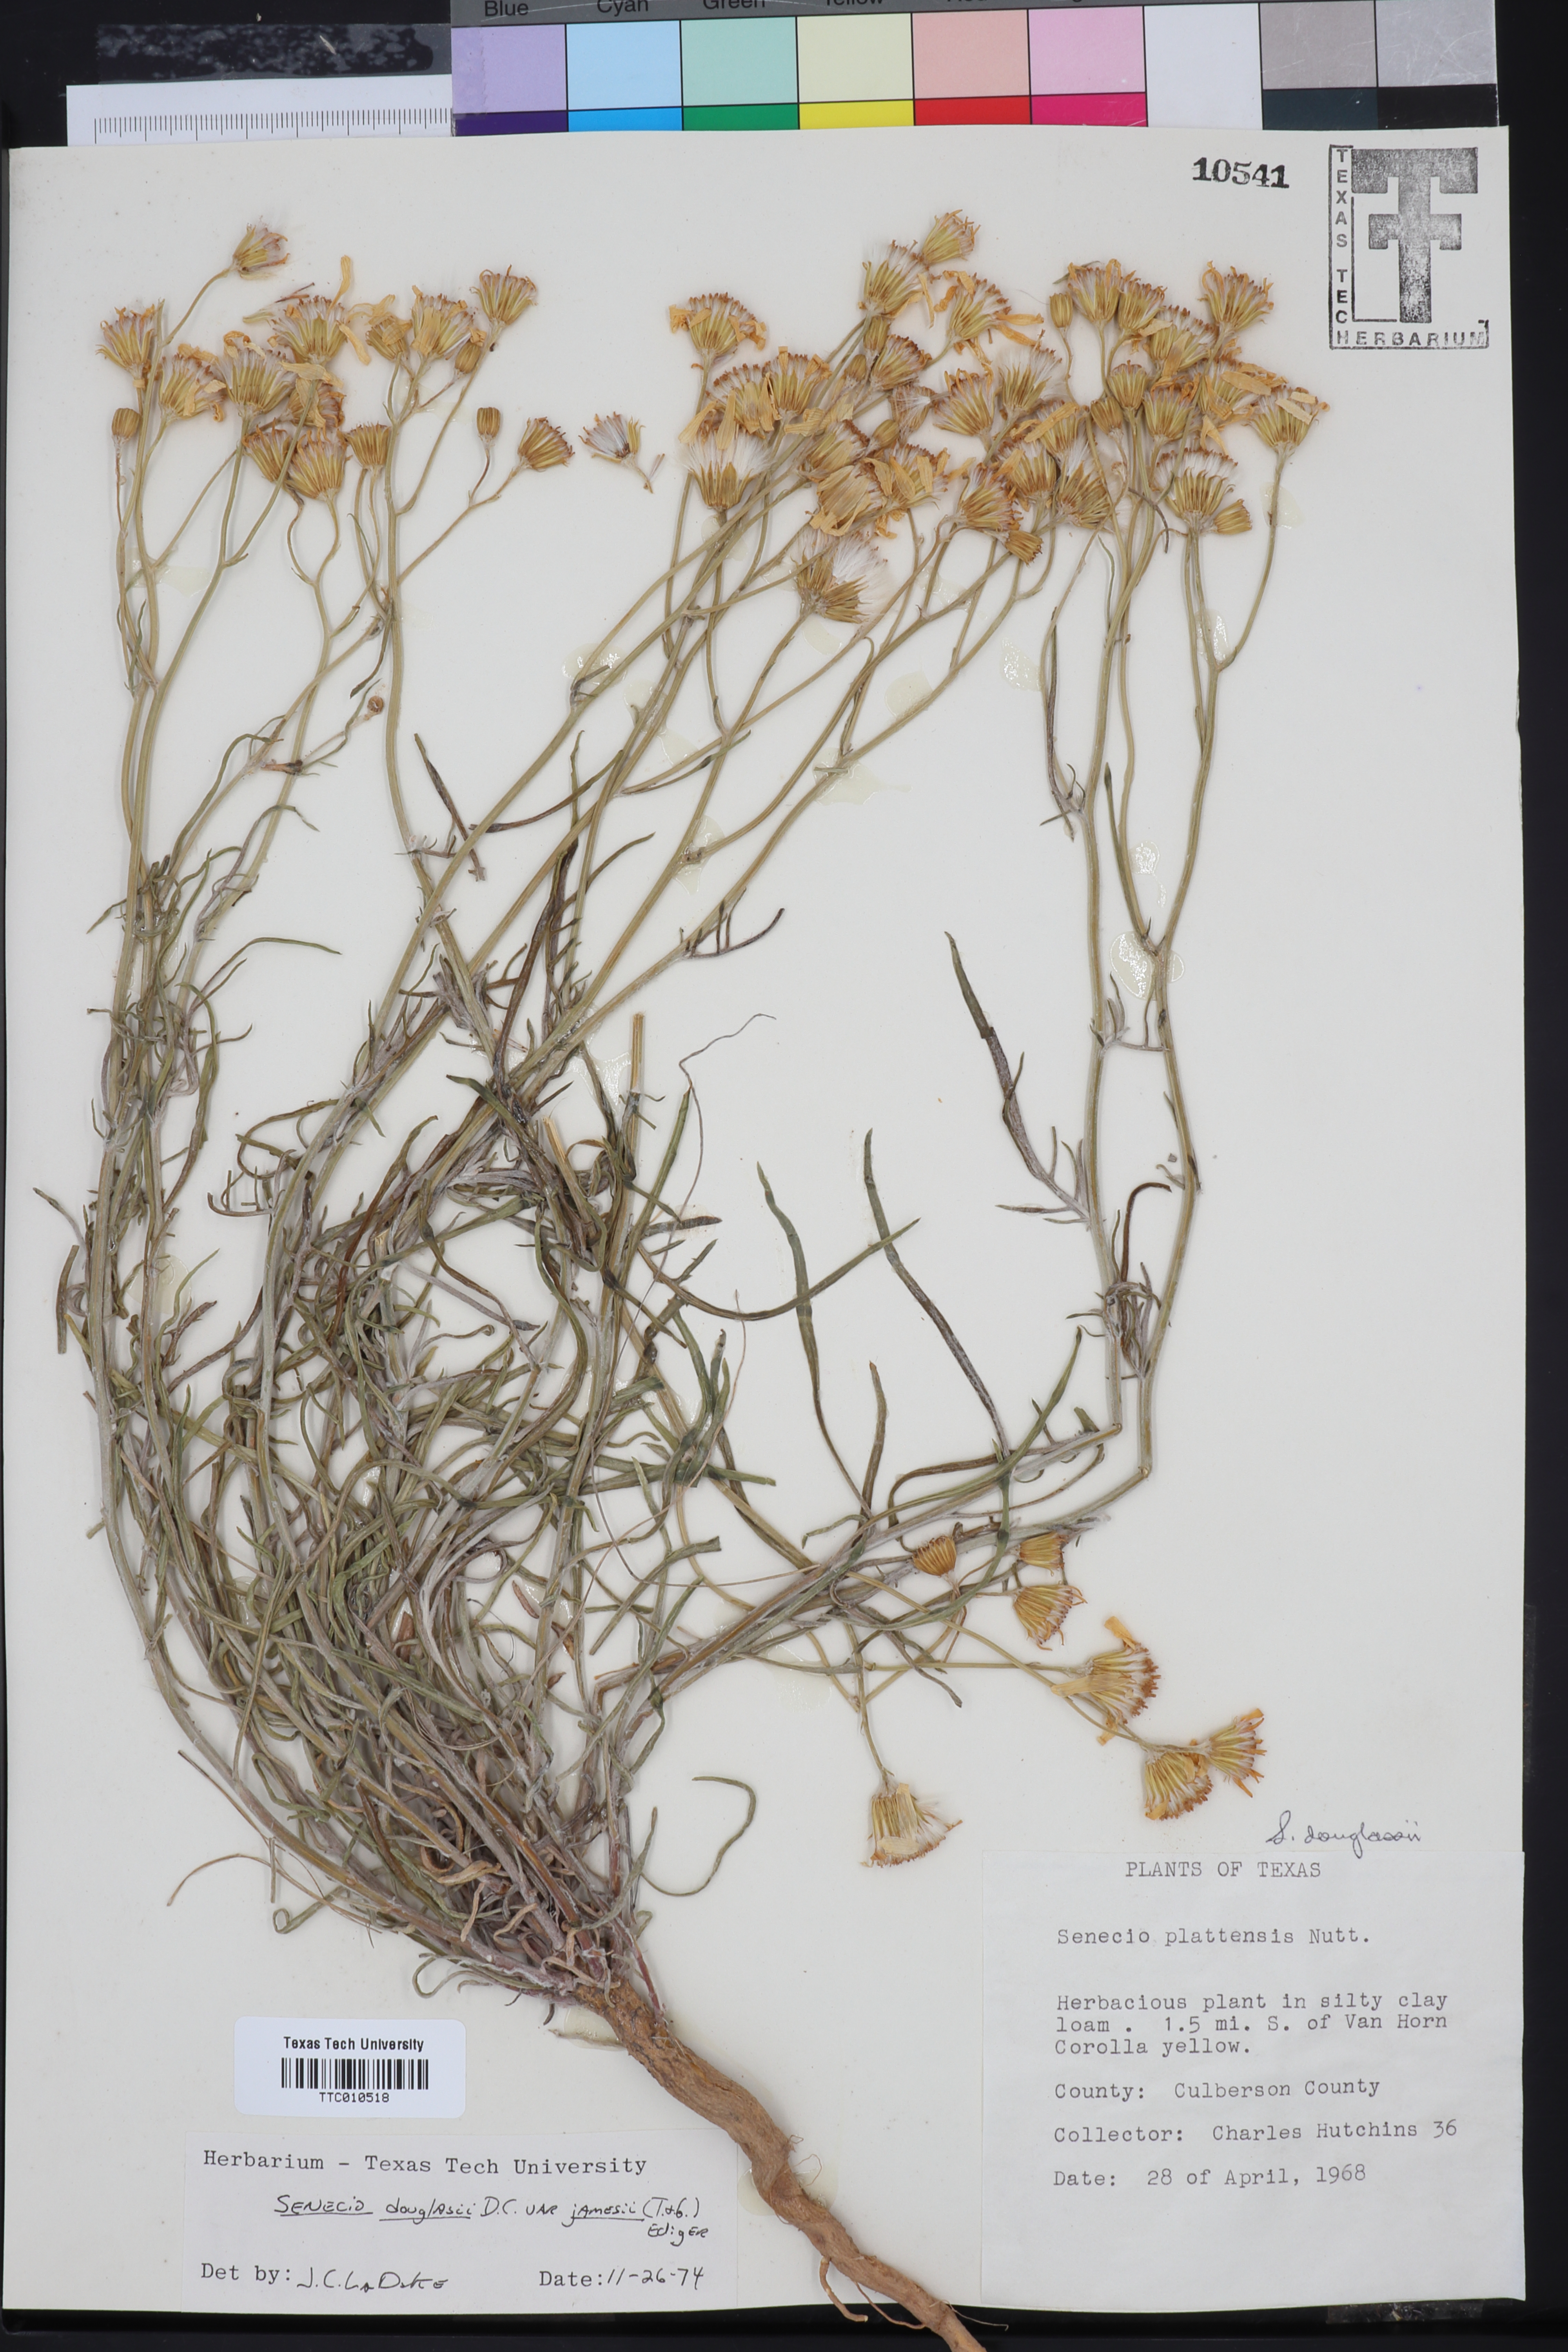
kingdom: Plantae
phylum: Tracheophyta
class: Magnoliopsida
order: Asterales
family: Asteraceae
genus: Senecio
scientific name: Senecio flaccidus
